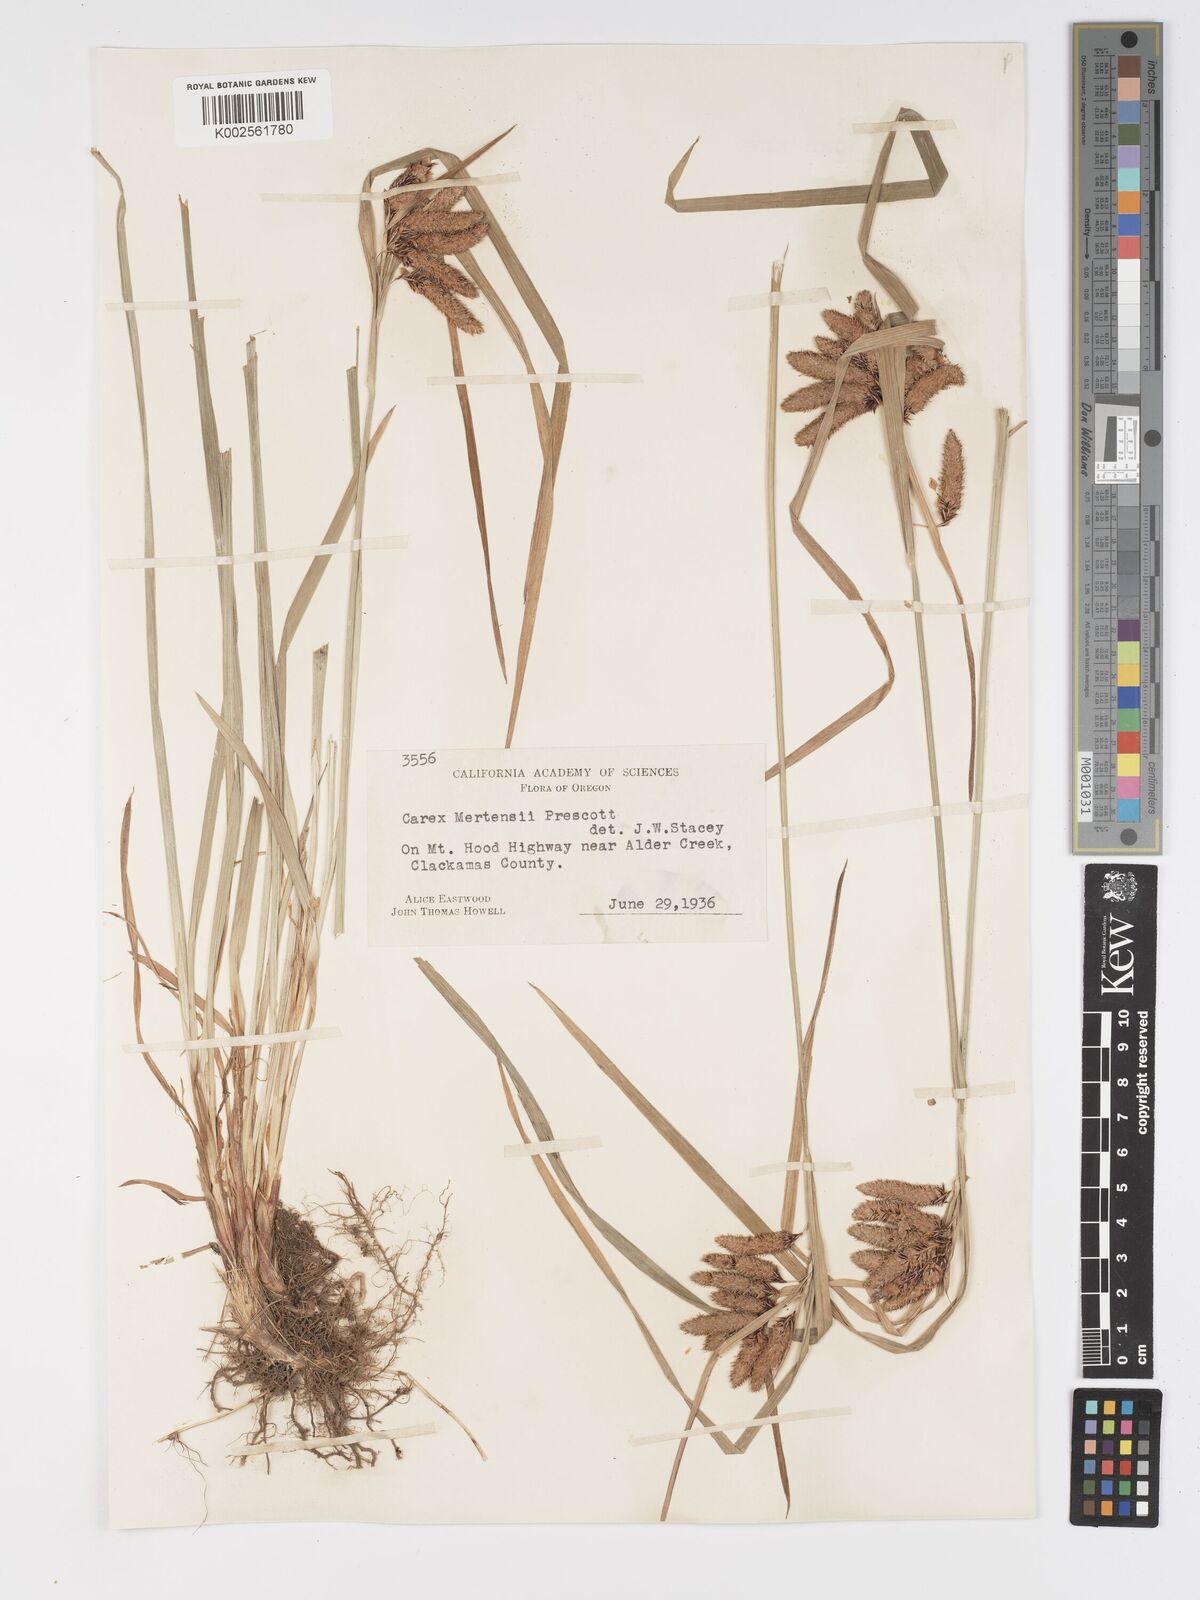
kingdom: Plantae
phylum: Tracheophyta
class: Liliopsida
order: Poales
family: Cyperaceae
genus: Carex
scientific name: Carex mertensii
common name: Mertens' sedge
